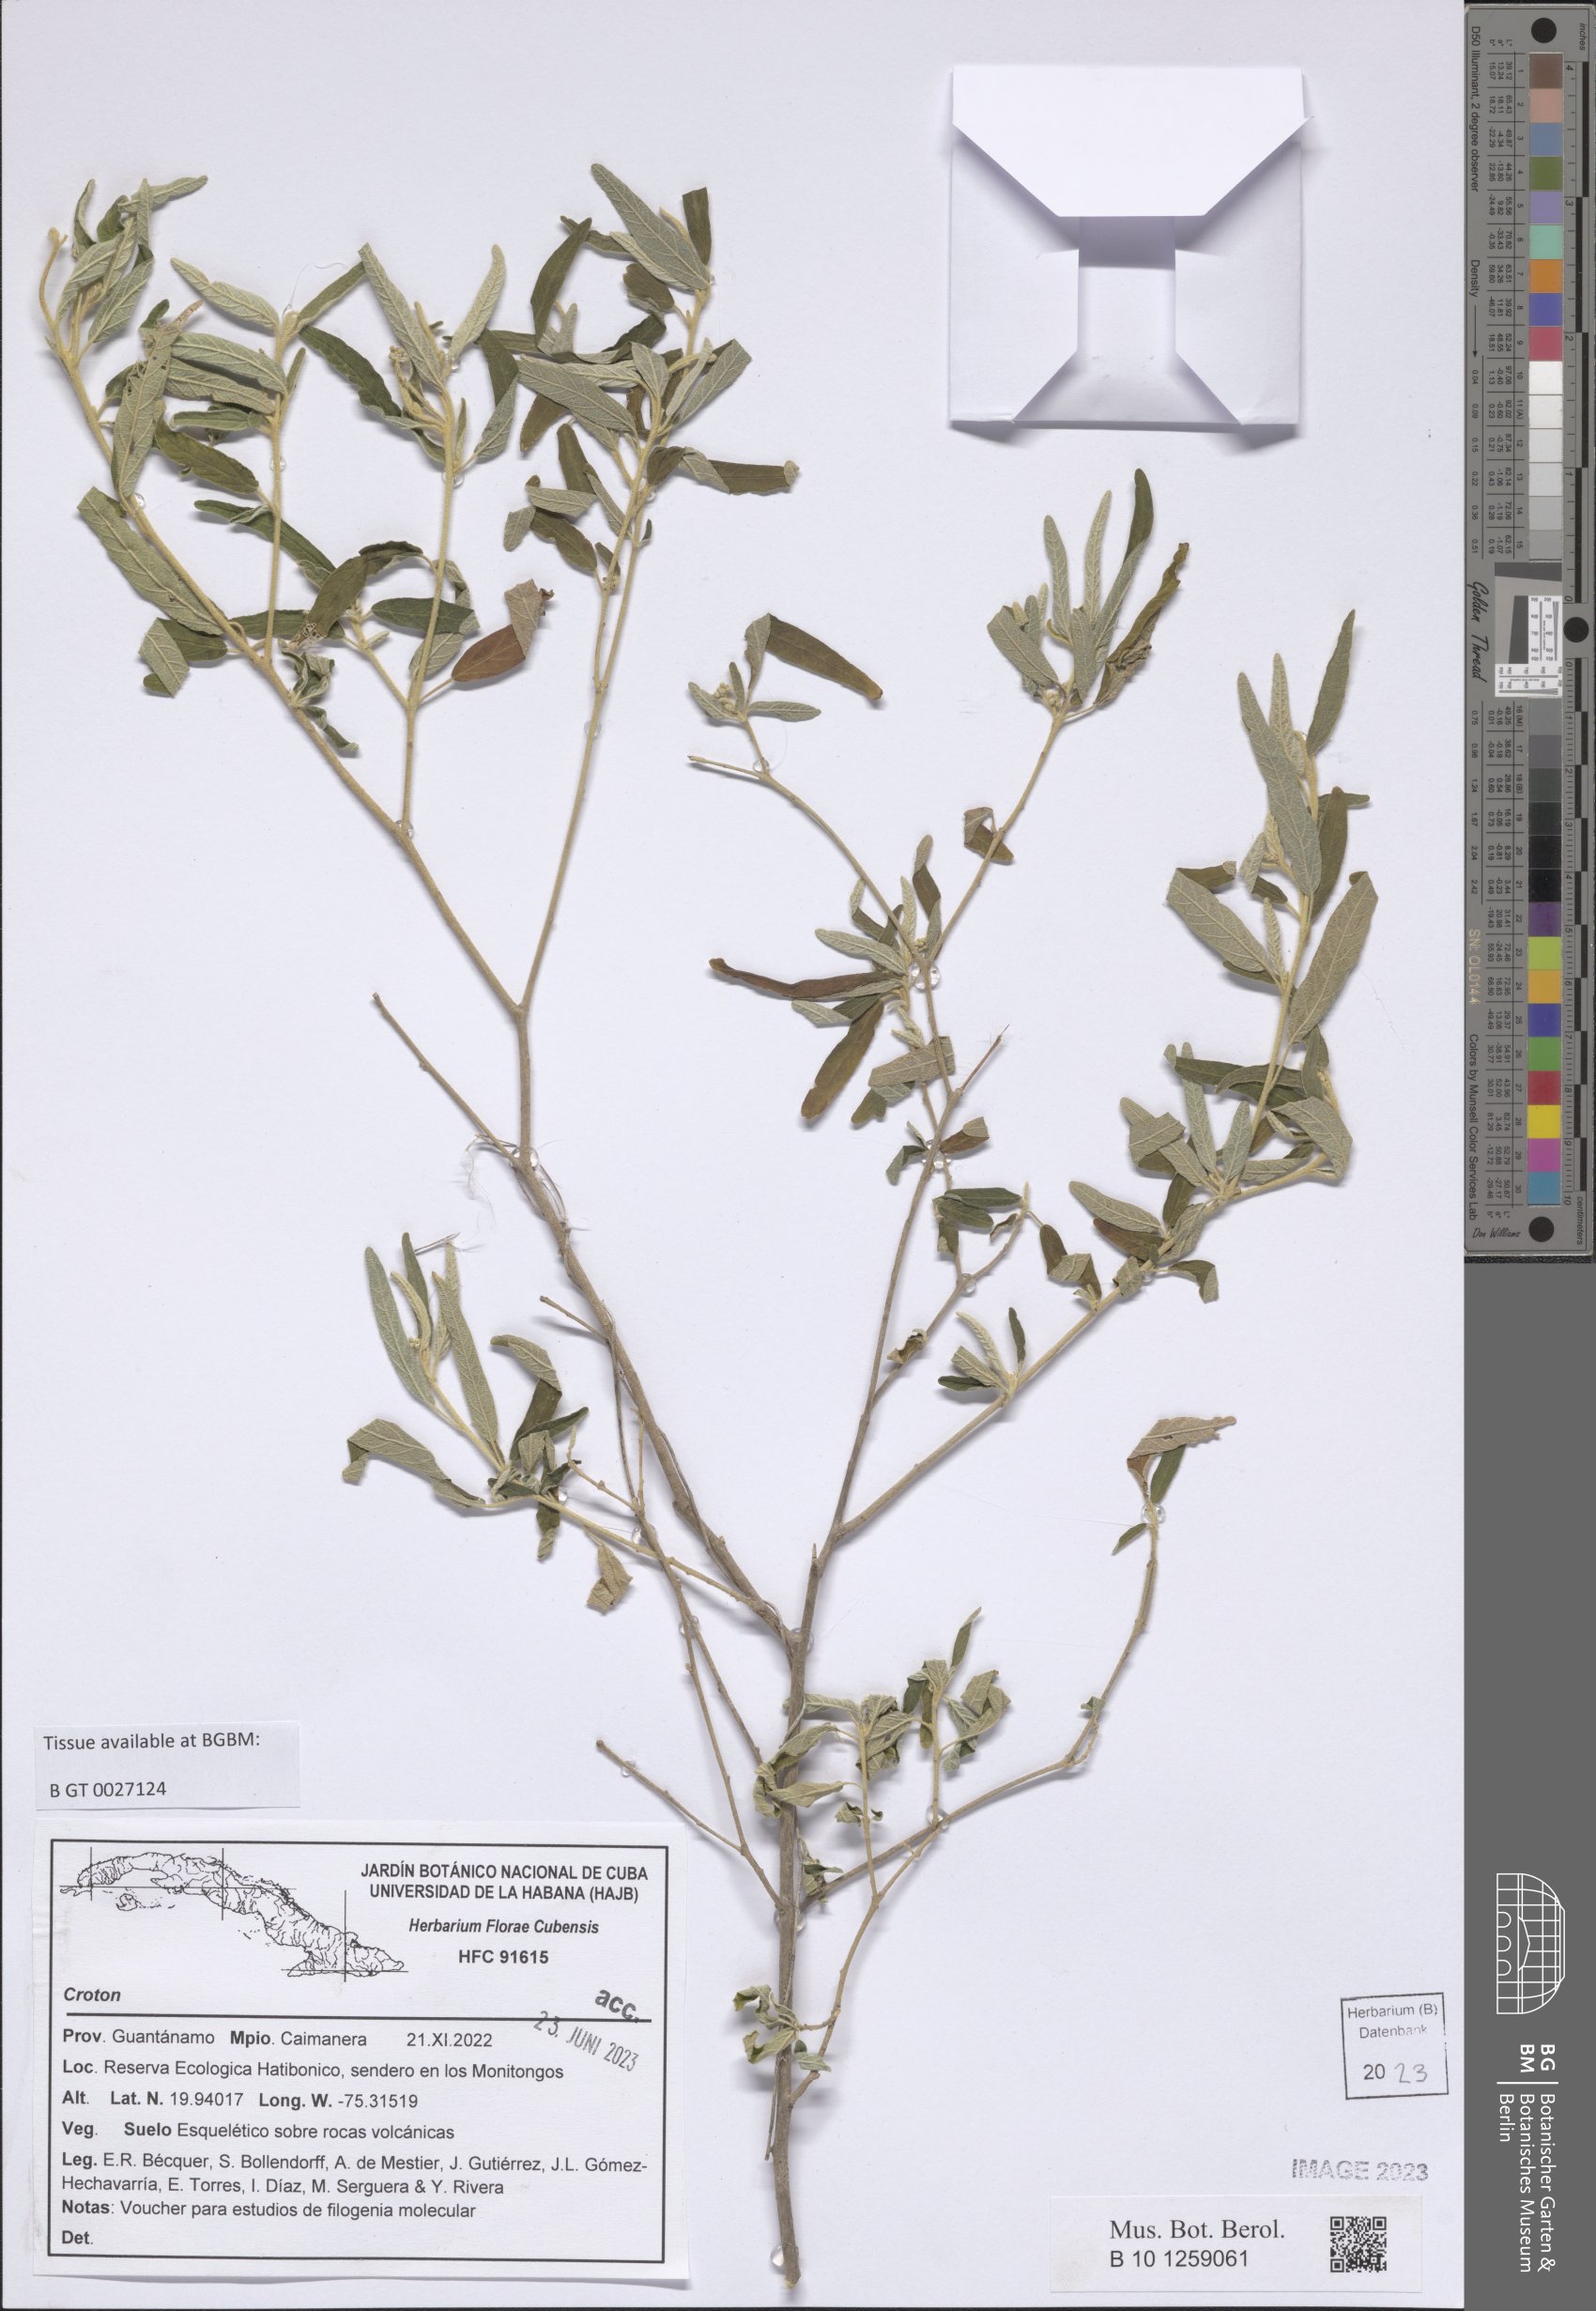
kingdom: Plantae
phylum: Tracheophyta
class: Magnoliopsida
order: Malpighiales
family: Euphorbiaceae
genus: Croton
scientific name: Croton
